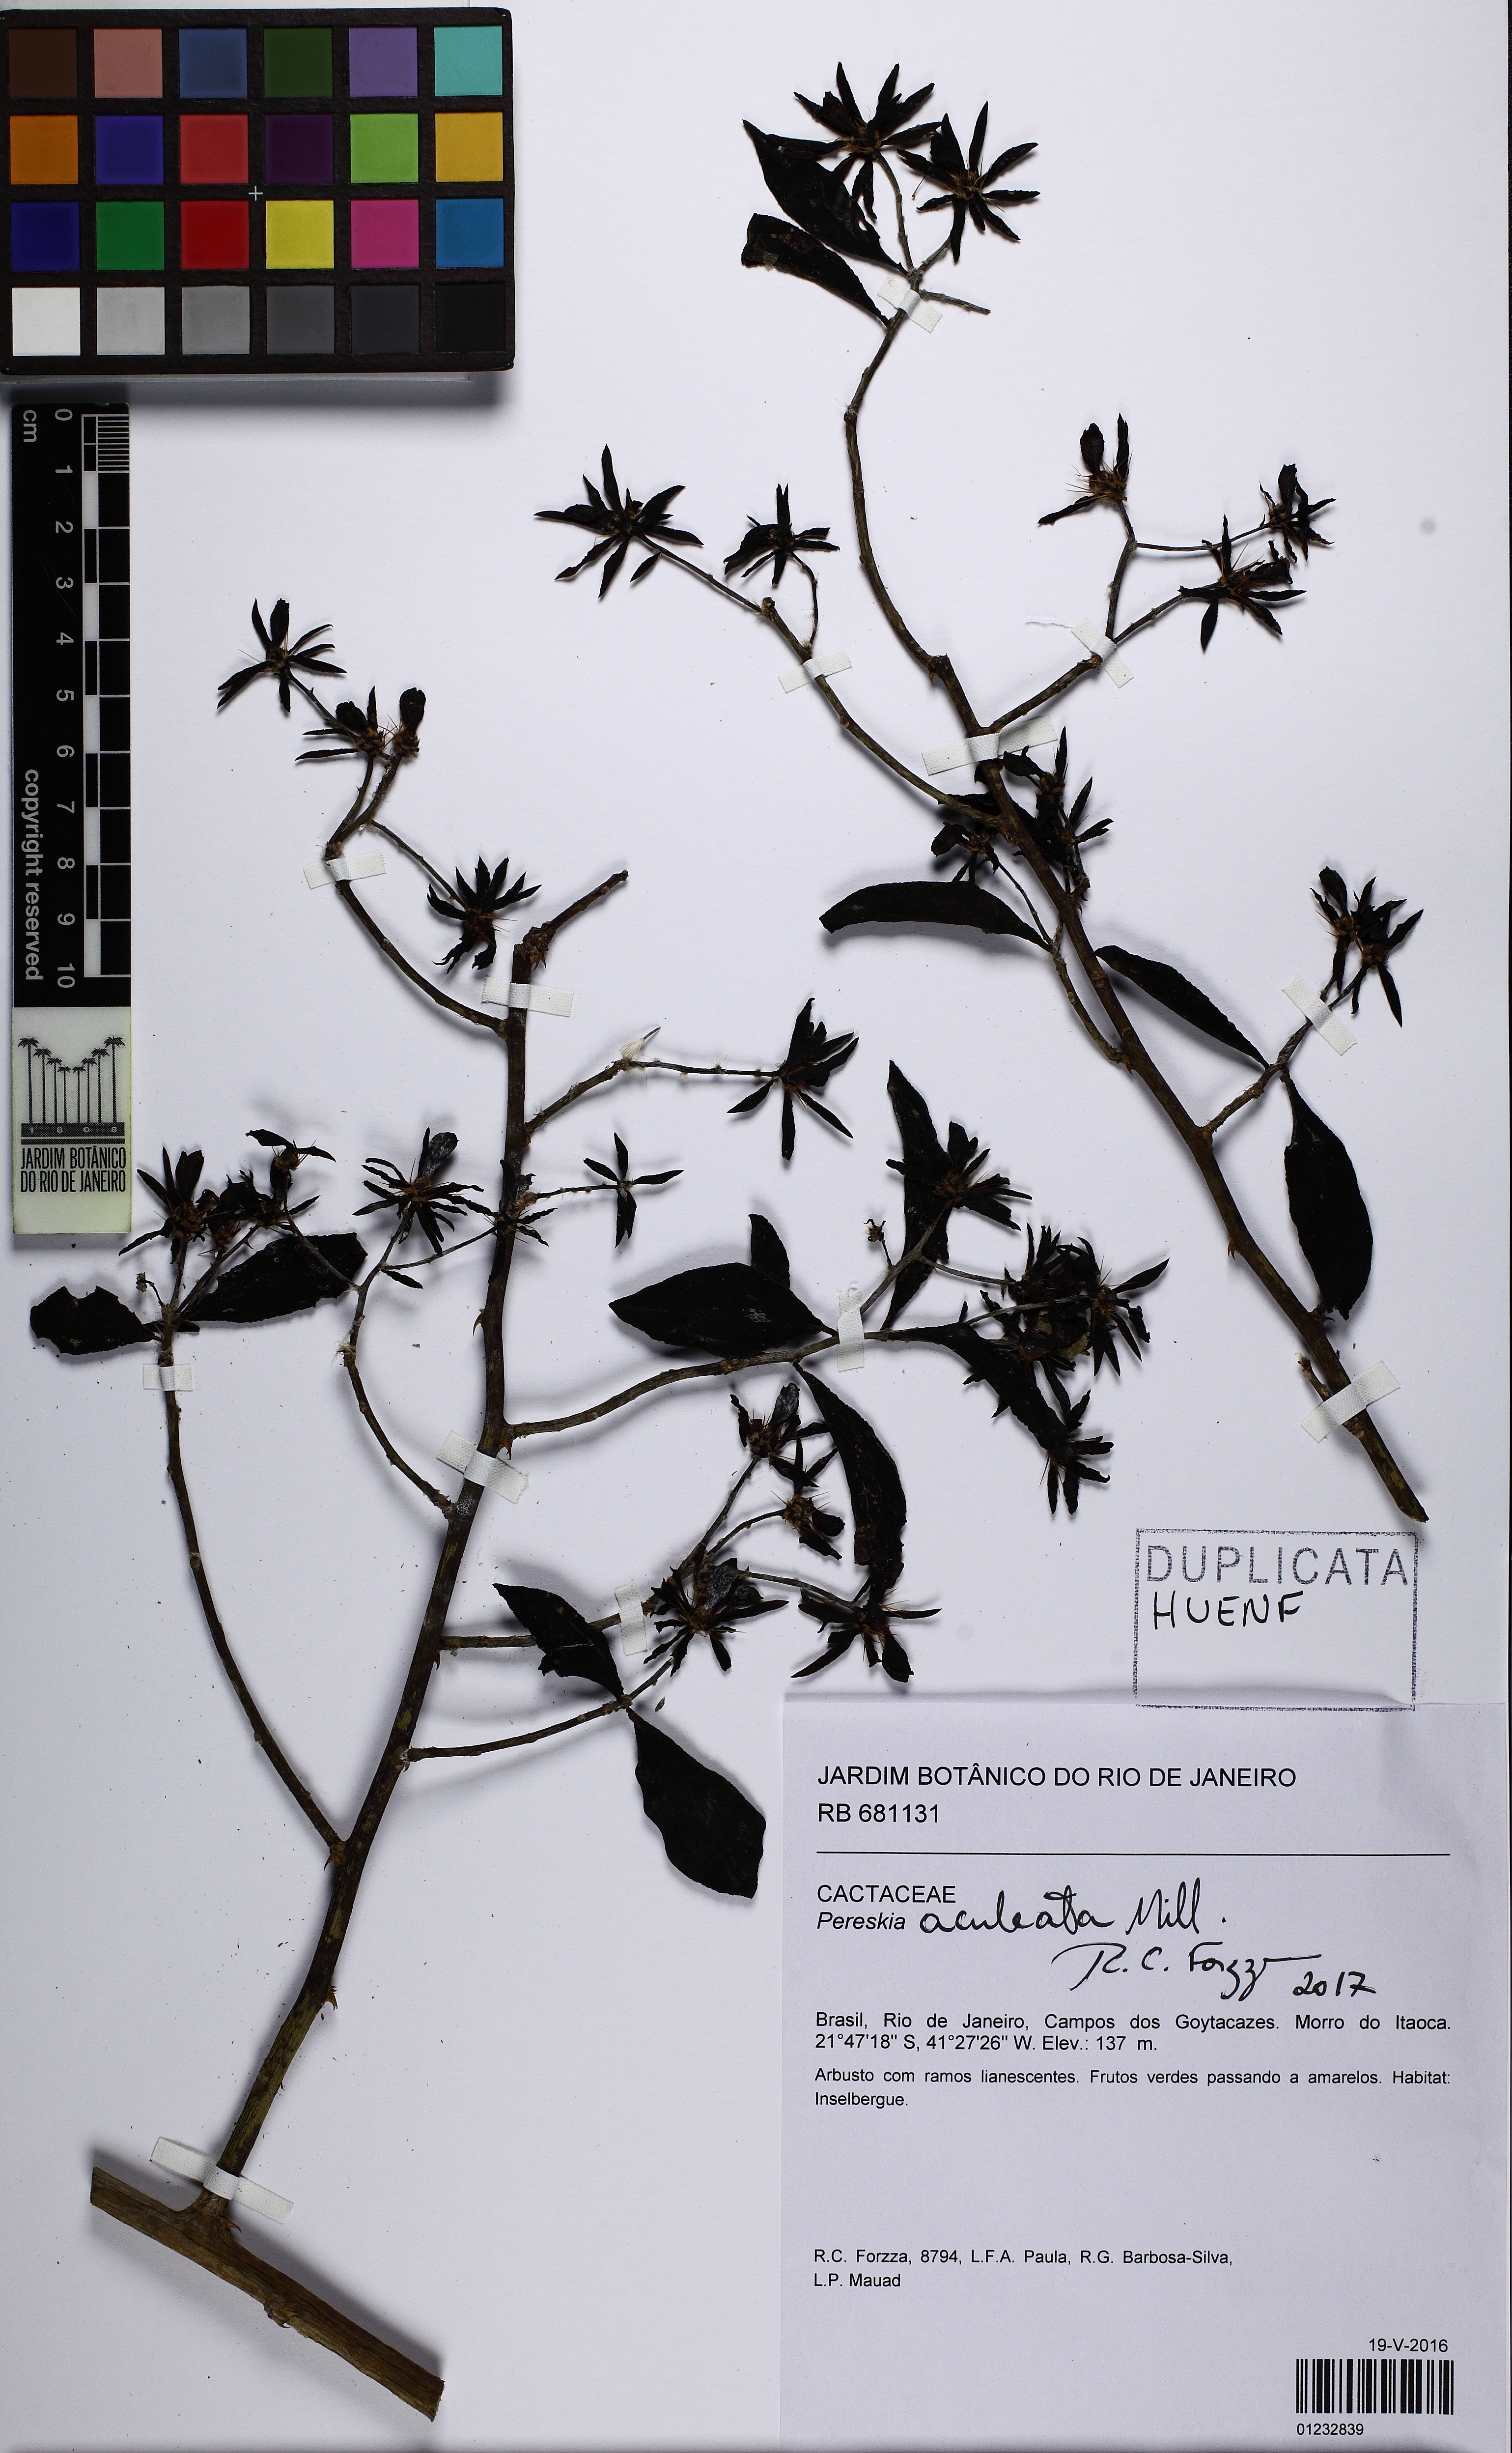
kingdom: Plantae
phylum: Tracheophyta
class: Magnoliopsida
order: Caryophyllales
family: Cactaceae
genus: Pereskia
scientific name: Pereskia aculeata
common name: Barbados gooseberry
